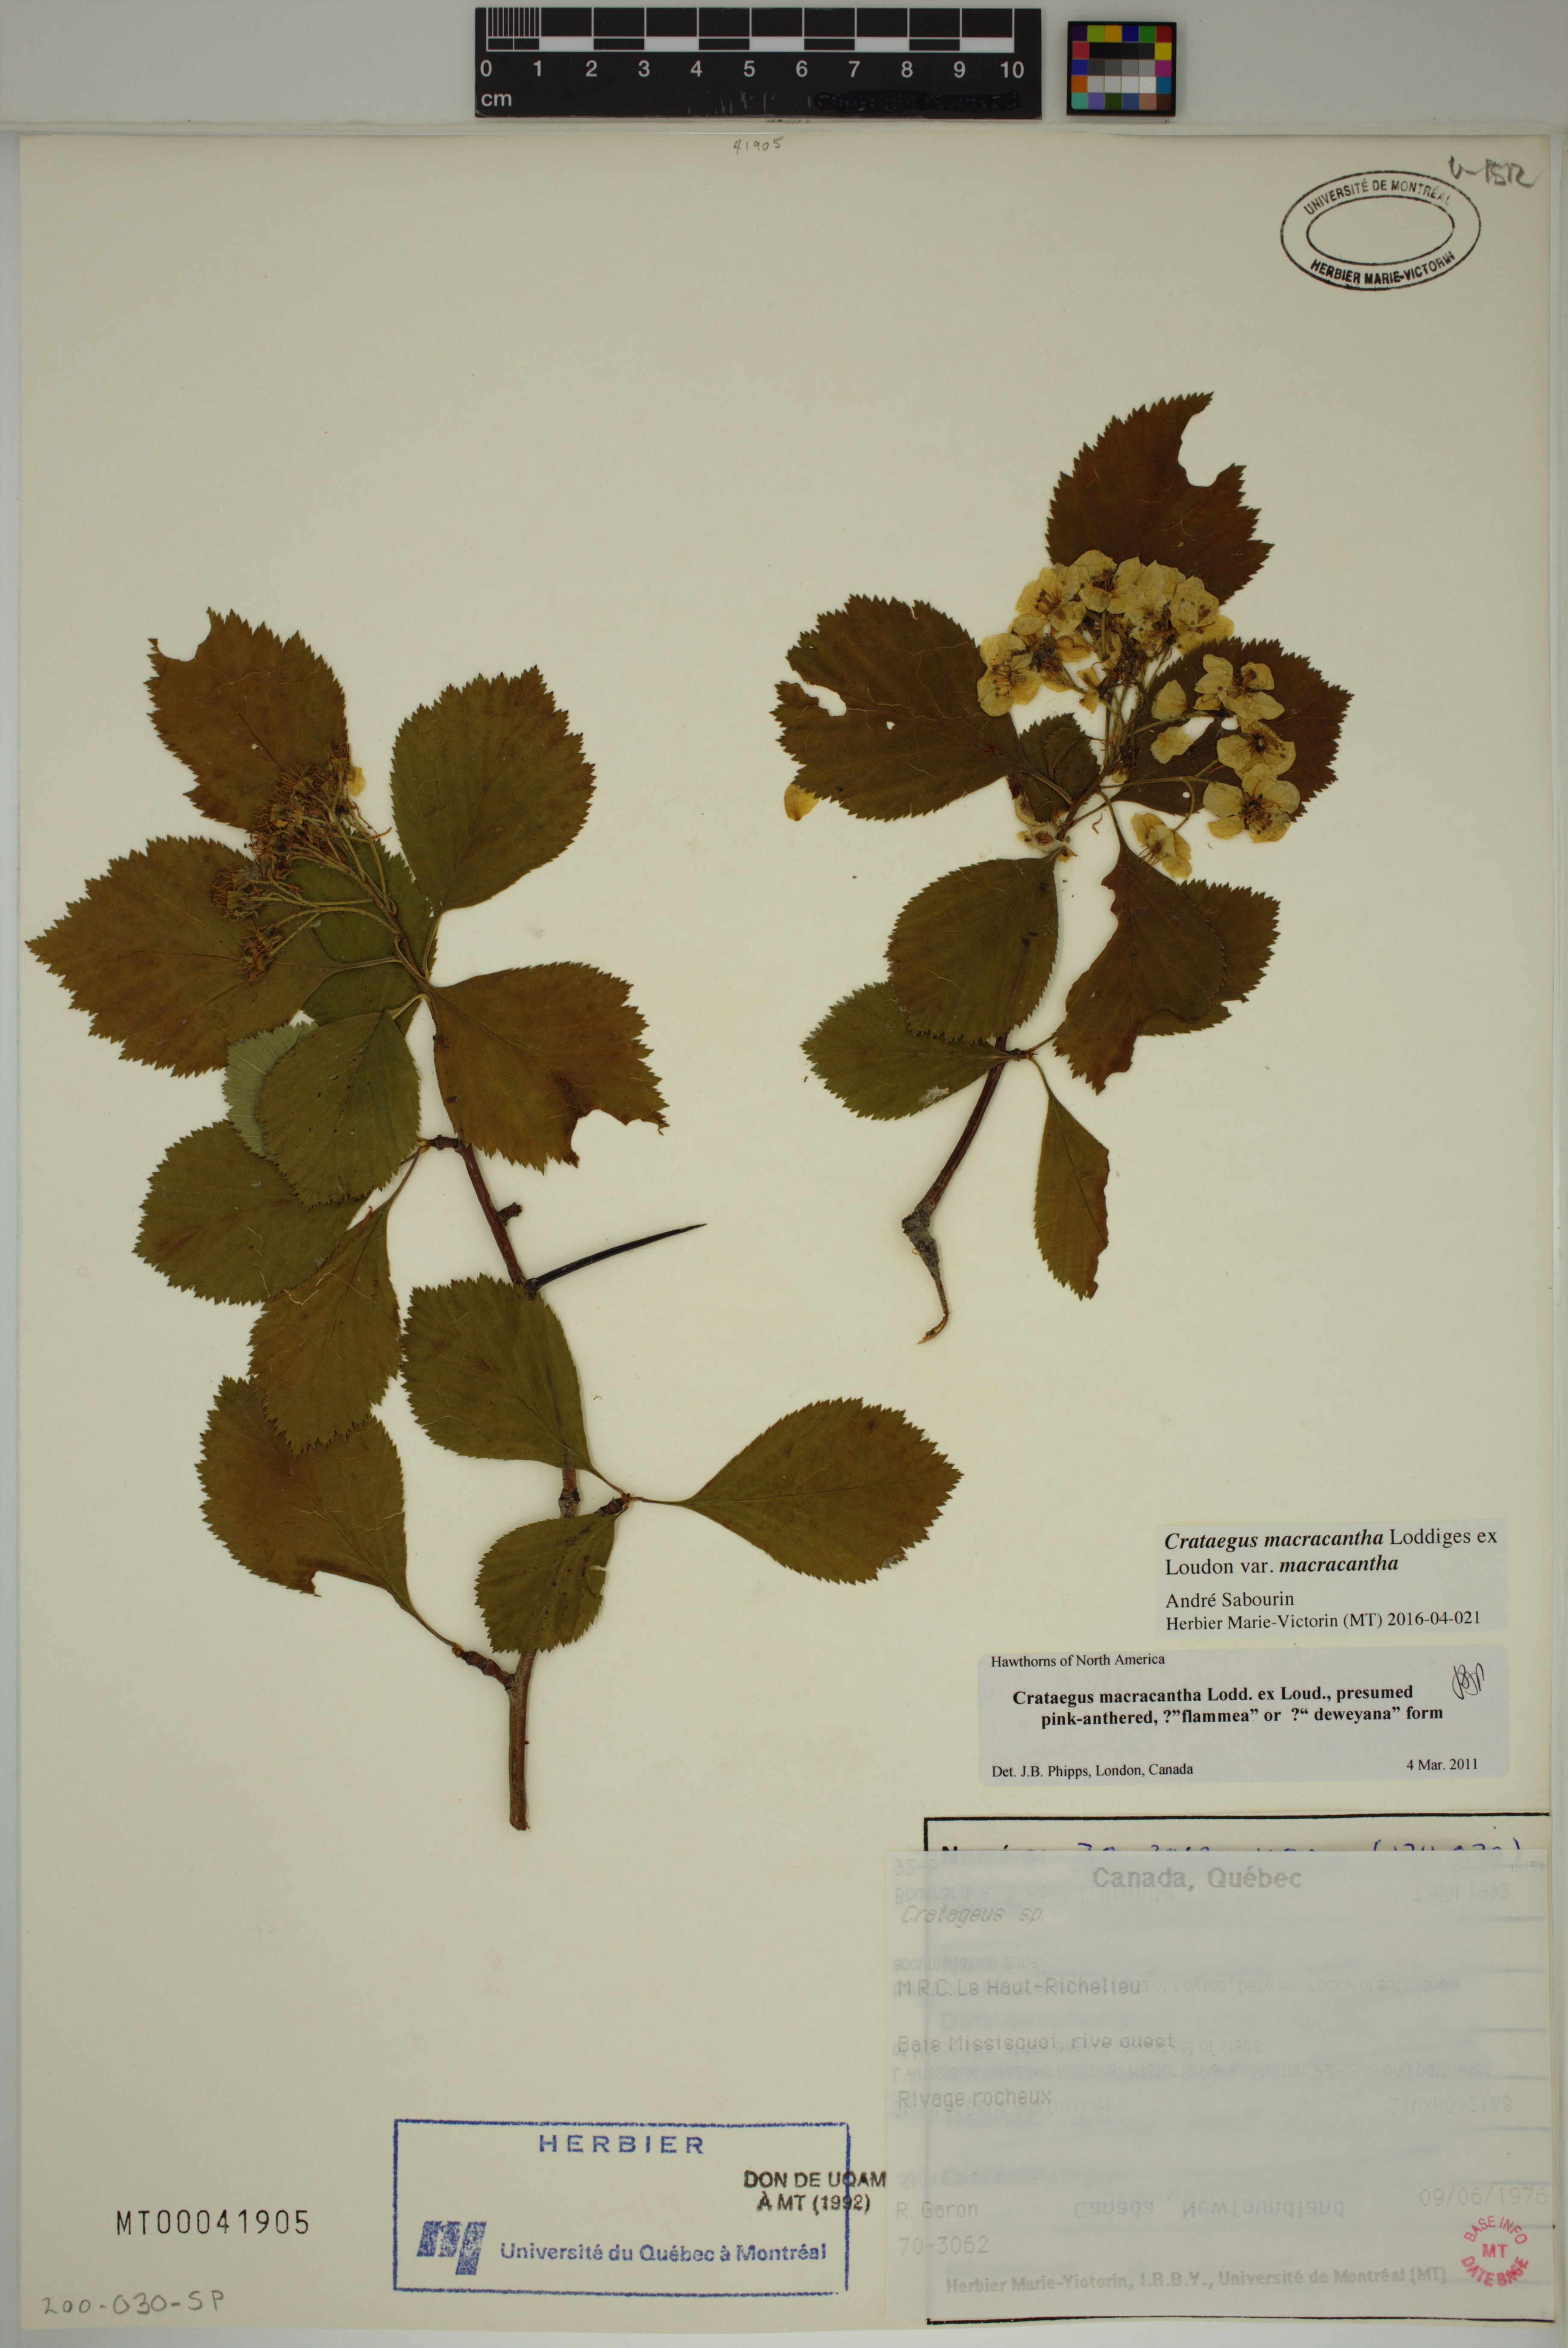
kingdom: Plantae
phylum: Tracheophyta
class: Magnoliopsida
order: Rosales
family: Rosaceae
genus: Crataegus
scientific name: Crataegus macracantha
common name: Large-thorn hawthorn
